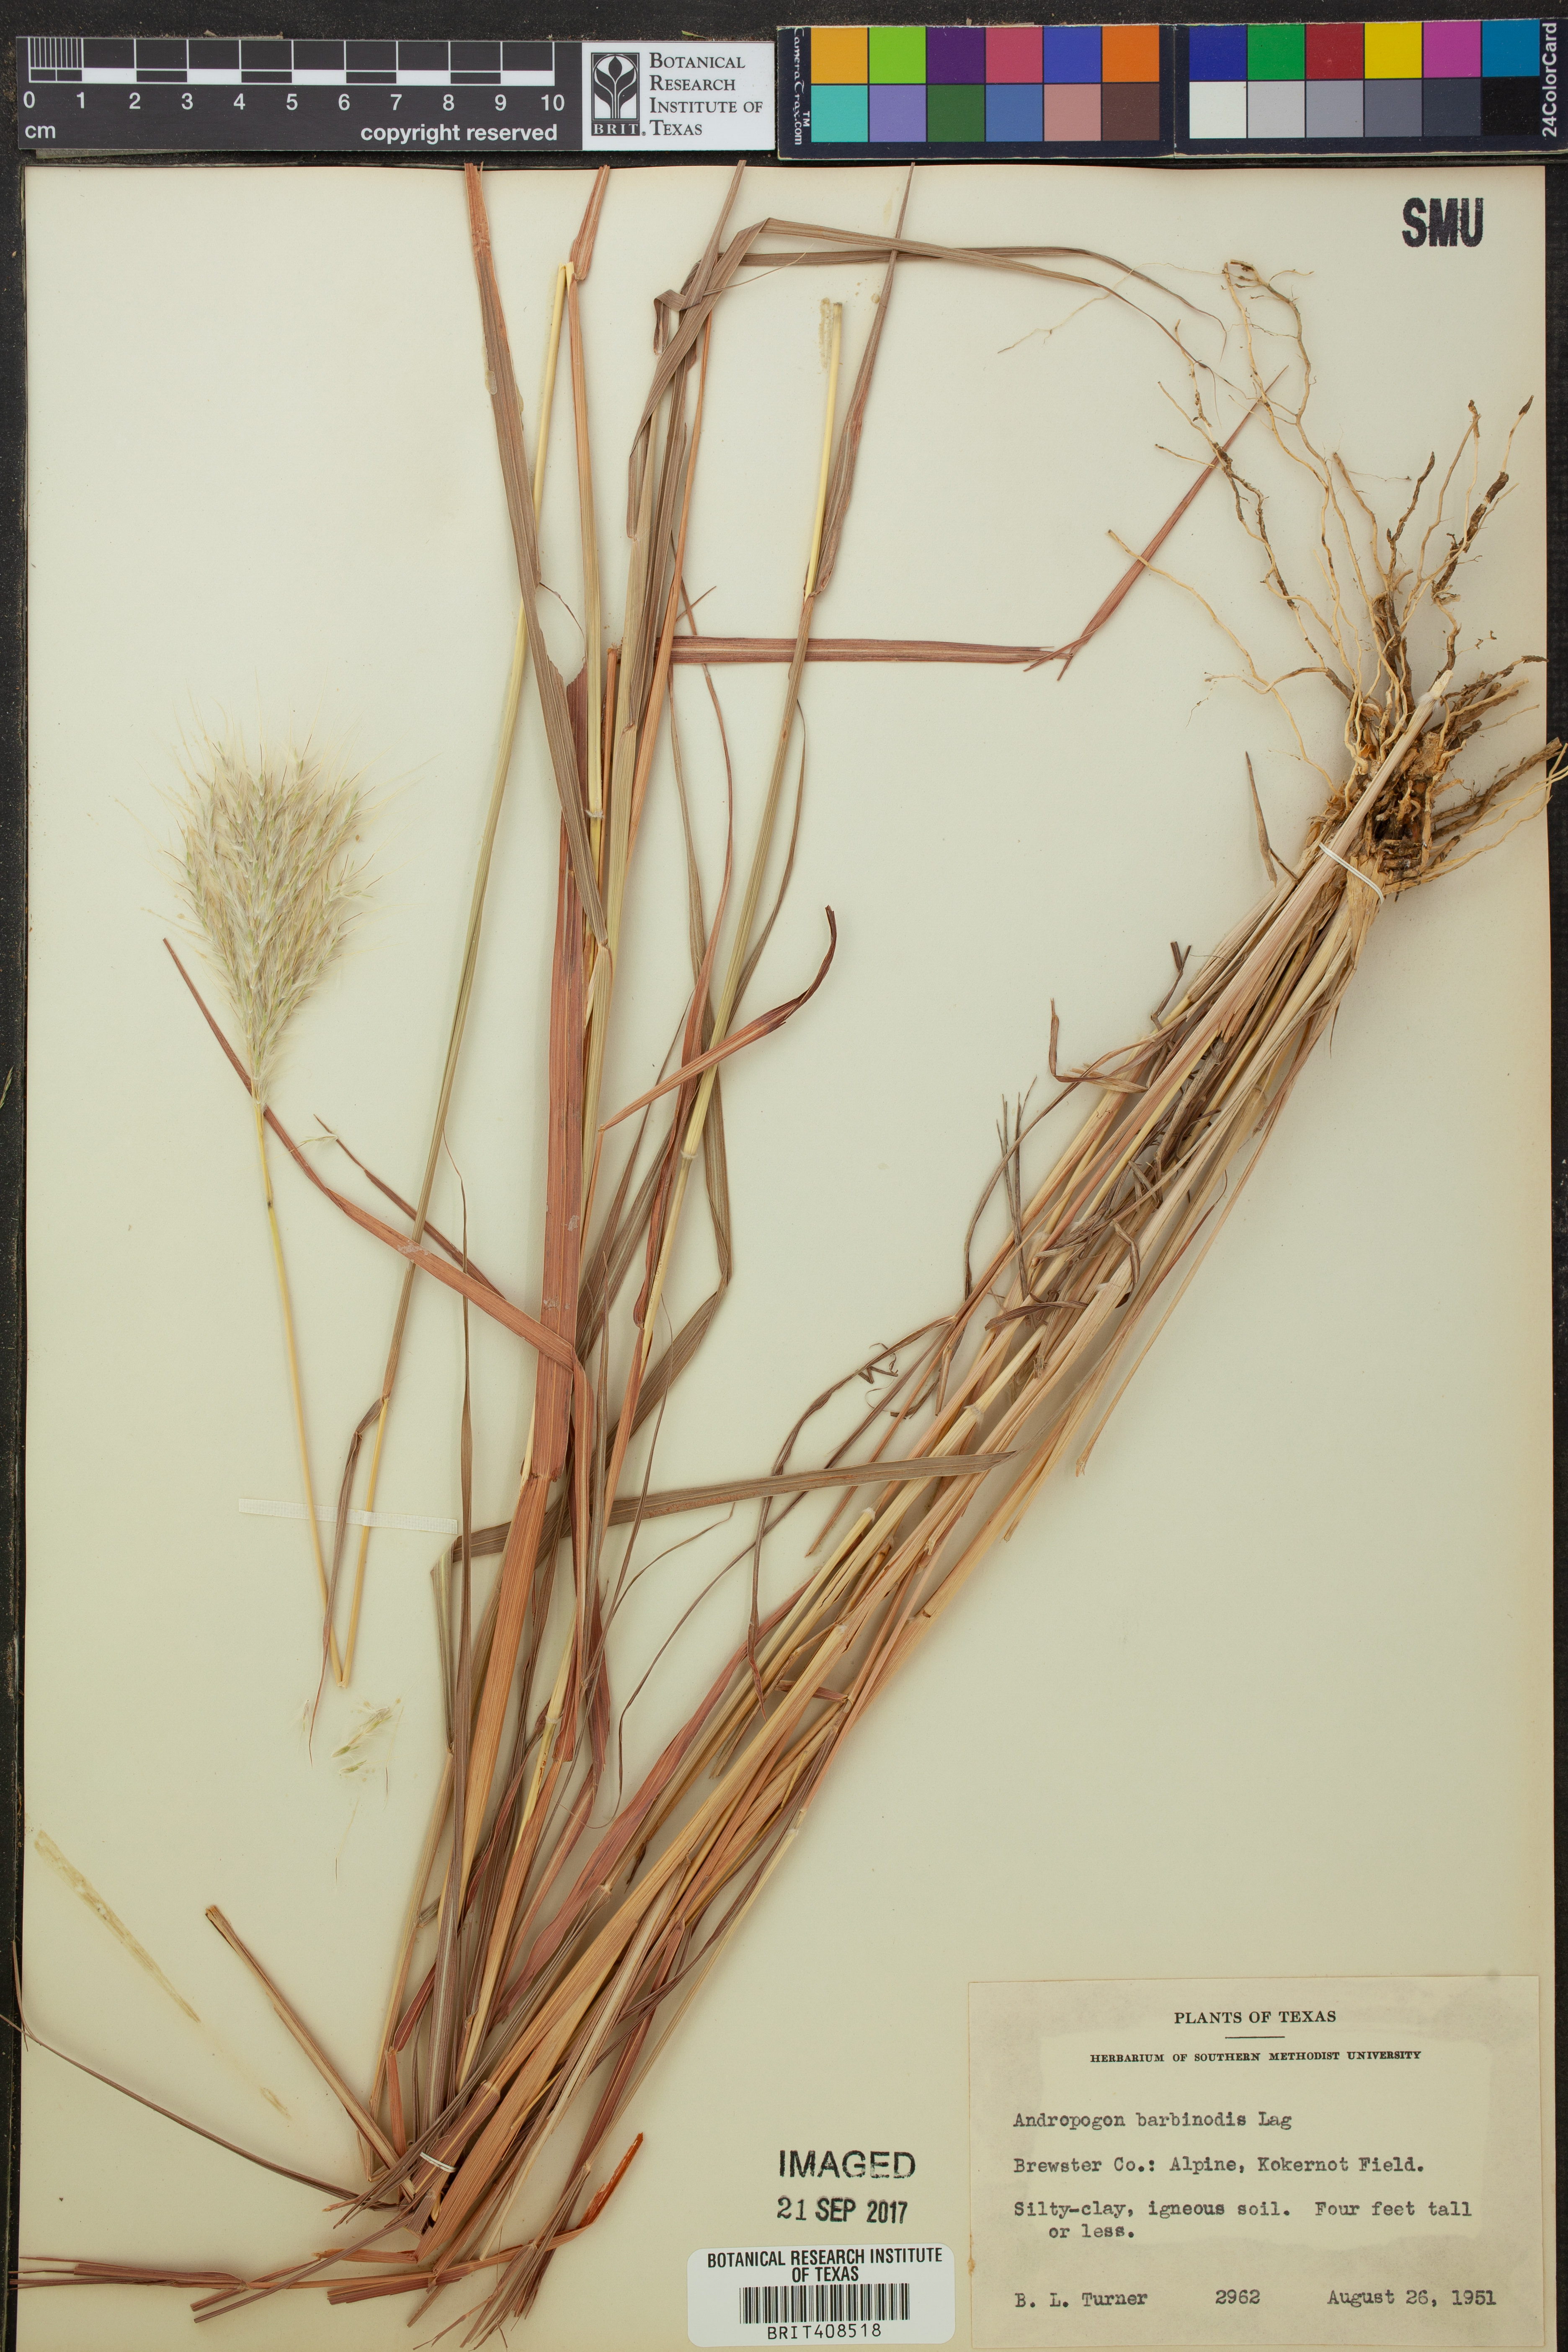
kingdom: Plantae
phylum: Tracheophyta
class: Liliopsida
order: Poales
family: Poaceae
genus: Bothriochloa
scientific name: Bothriochloa barbinodis
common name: Cane bluestem
